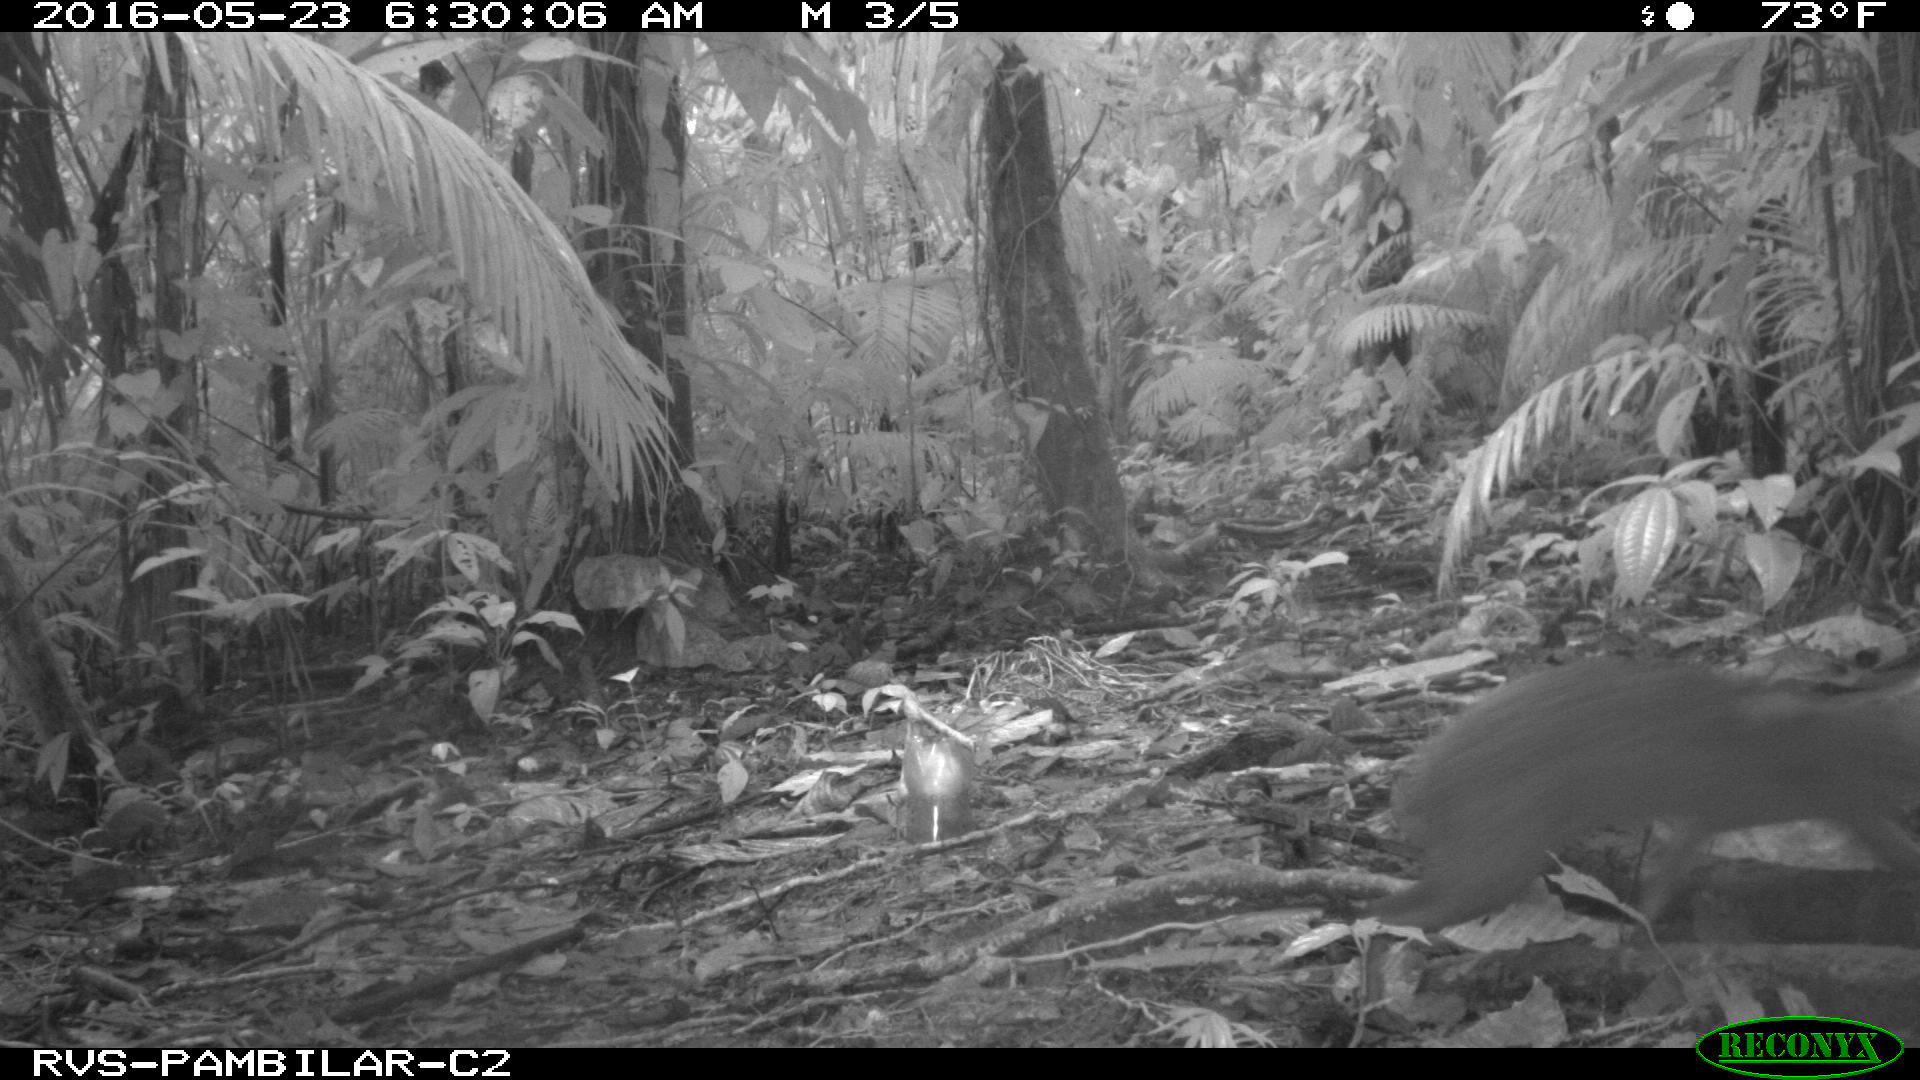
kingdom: Animalia
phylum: Chordata
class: Mammalia
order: Rodentia
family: Dasyproctidae
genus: Dasyprocta
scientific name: Dasyprocta punctata
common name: Central american agouti
